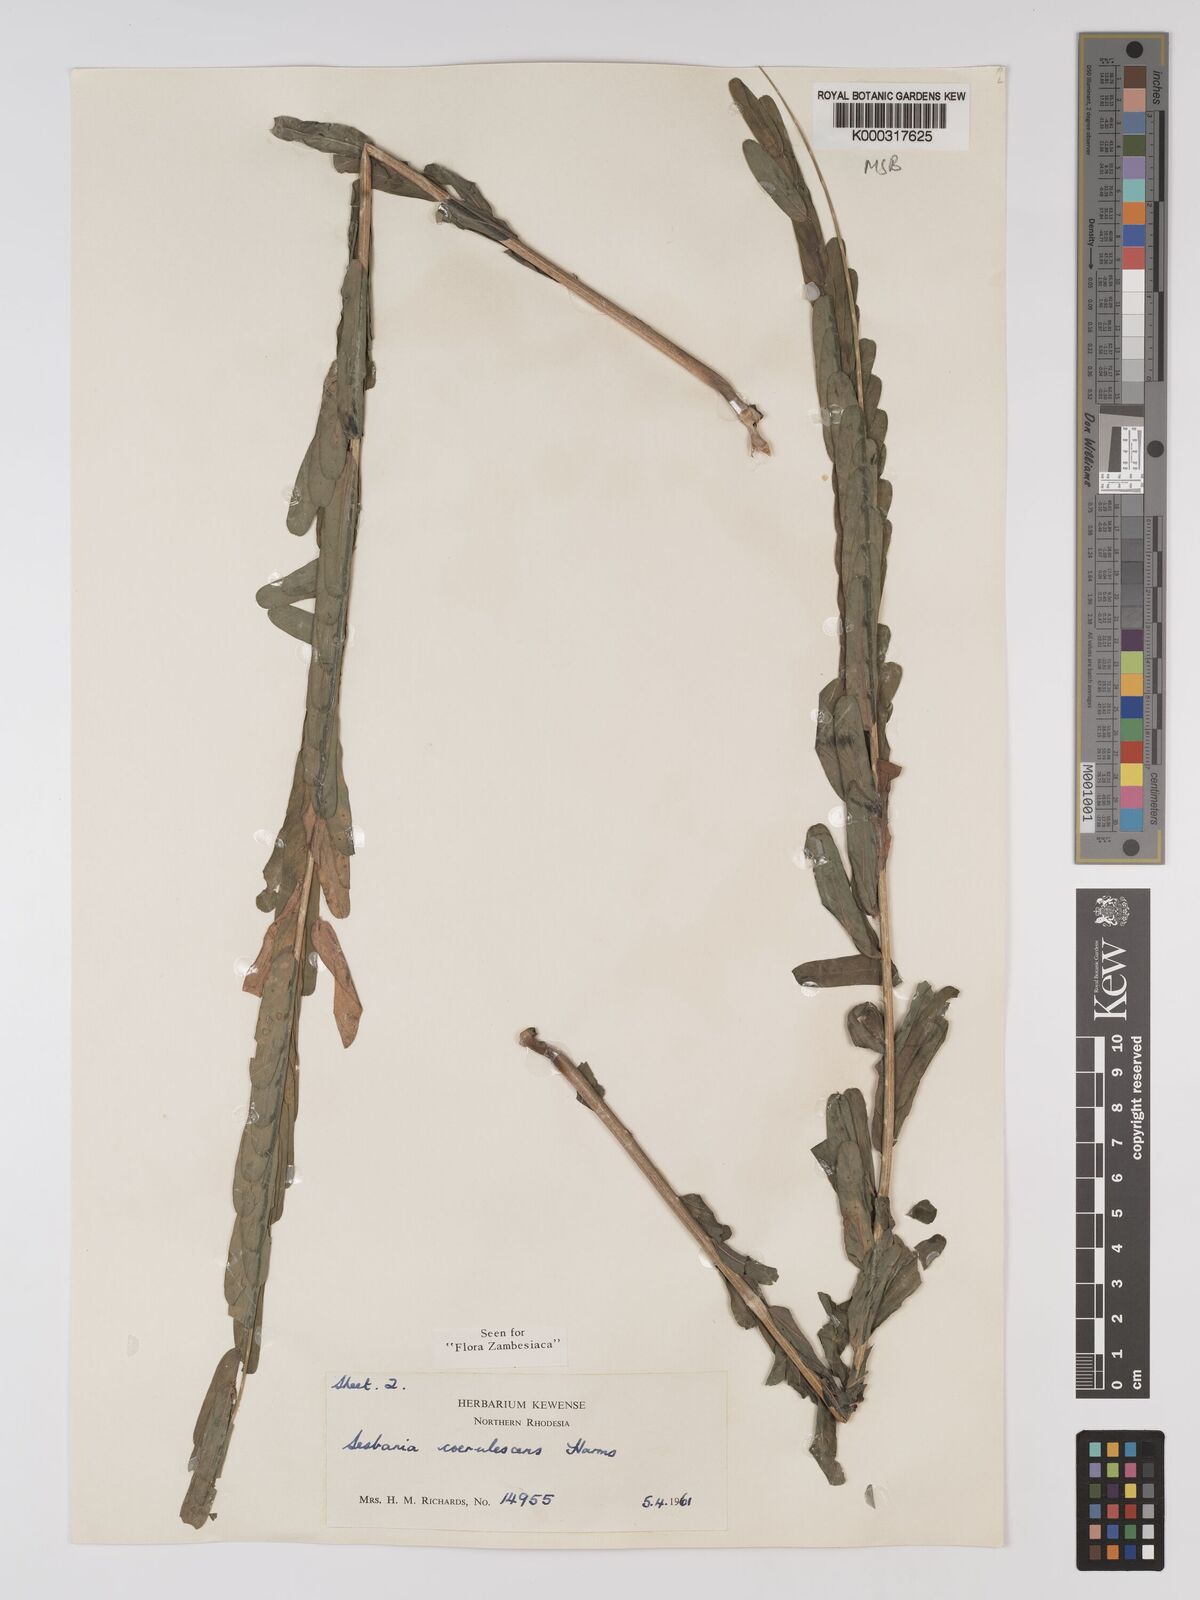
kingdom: Plantae
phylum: Tracheophyta
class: Magnoliopsida
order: Fabales
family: Fabaceae
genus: Sesbania
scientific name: Sesbania coerulescens
